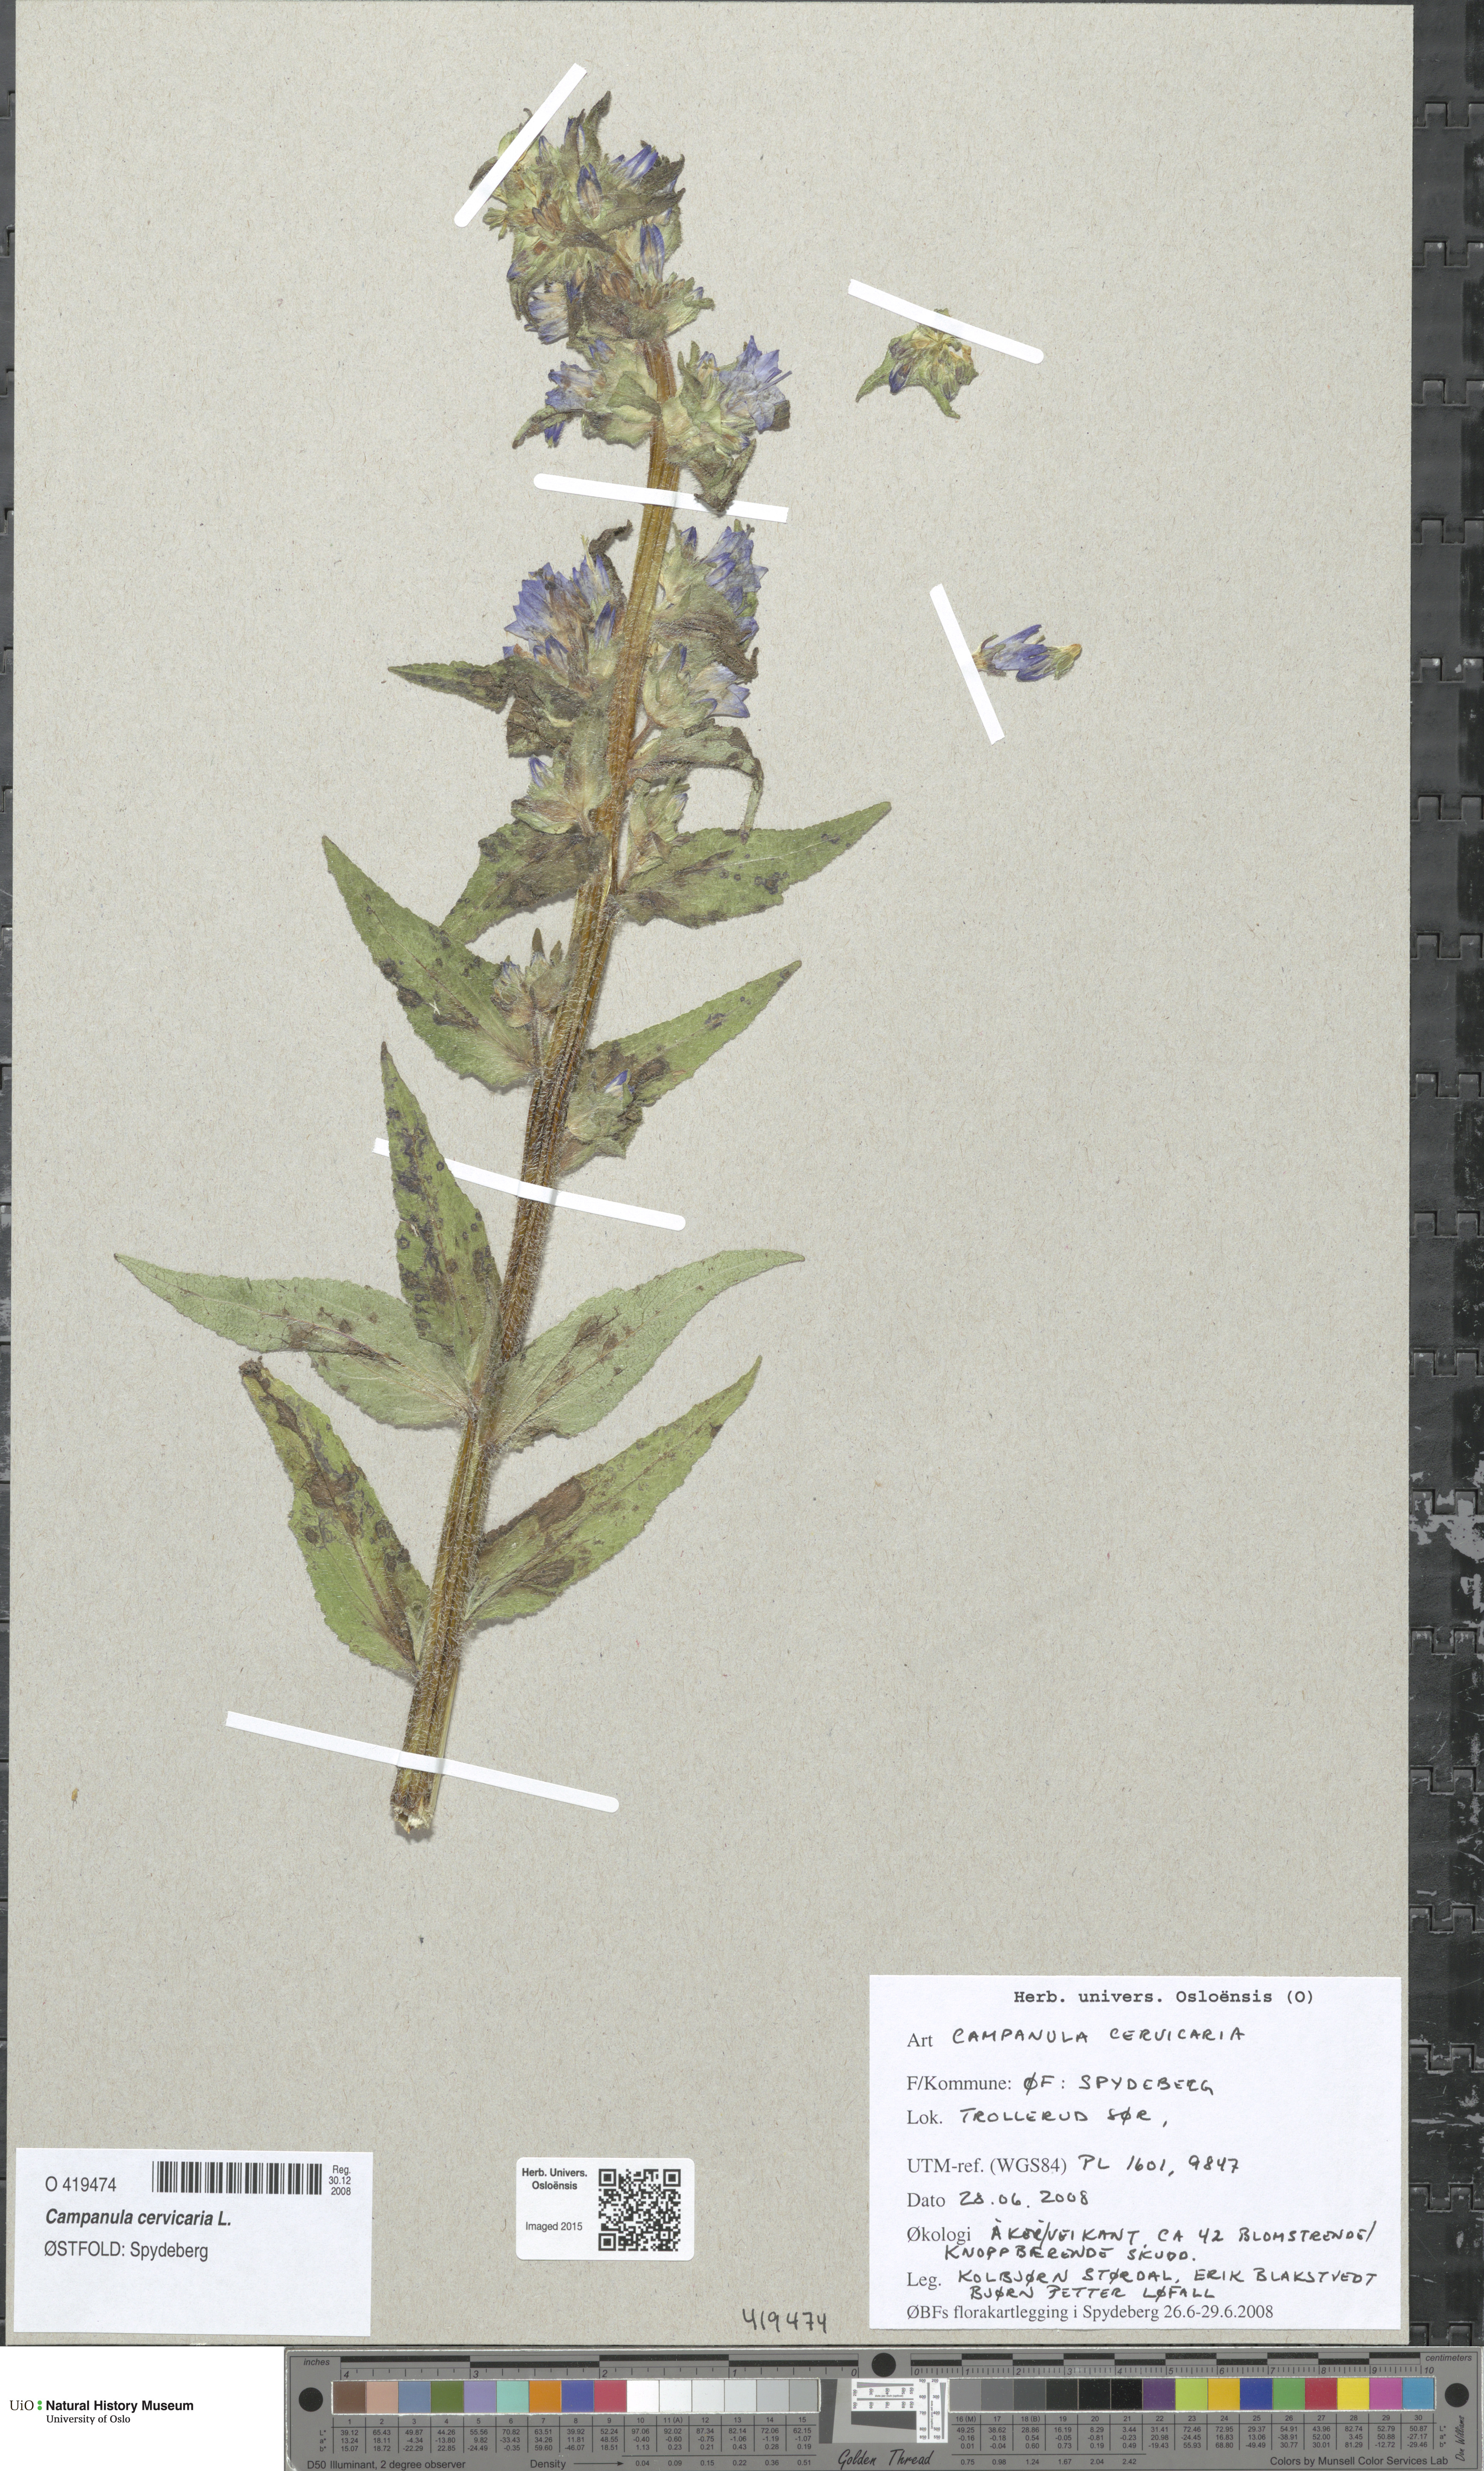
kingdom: Plantae
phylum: Tracheophyta
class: Magnoliopsida
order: Asterales
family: Campanulaceae
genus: Campanula
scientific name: Campanula cervicaria
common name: Bristly bellflower
